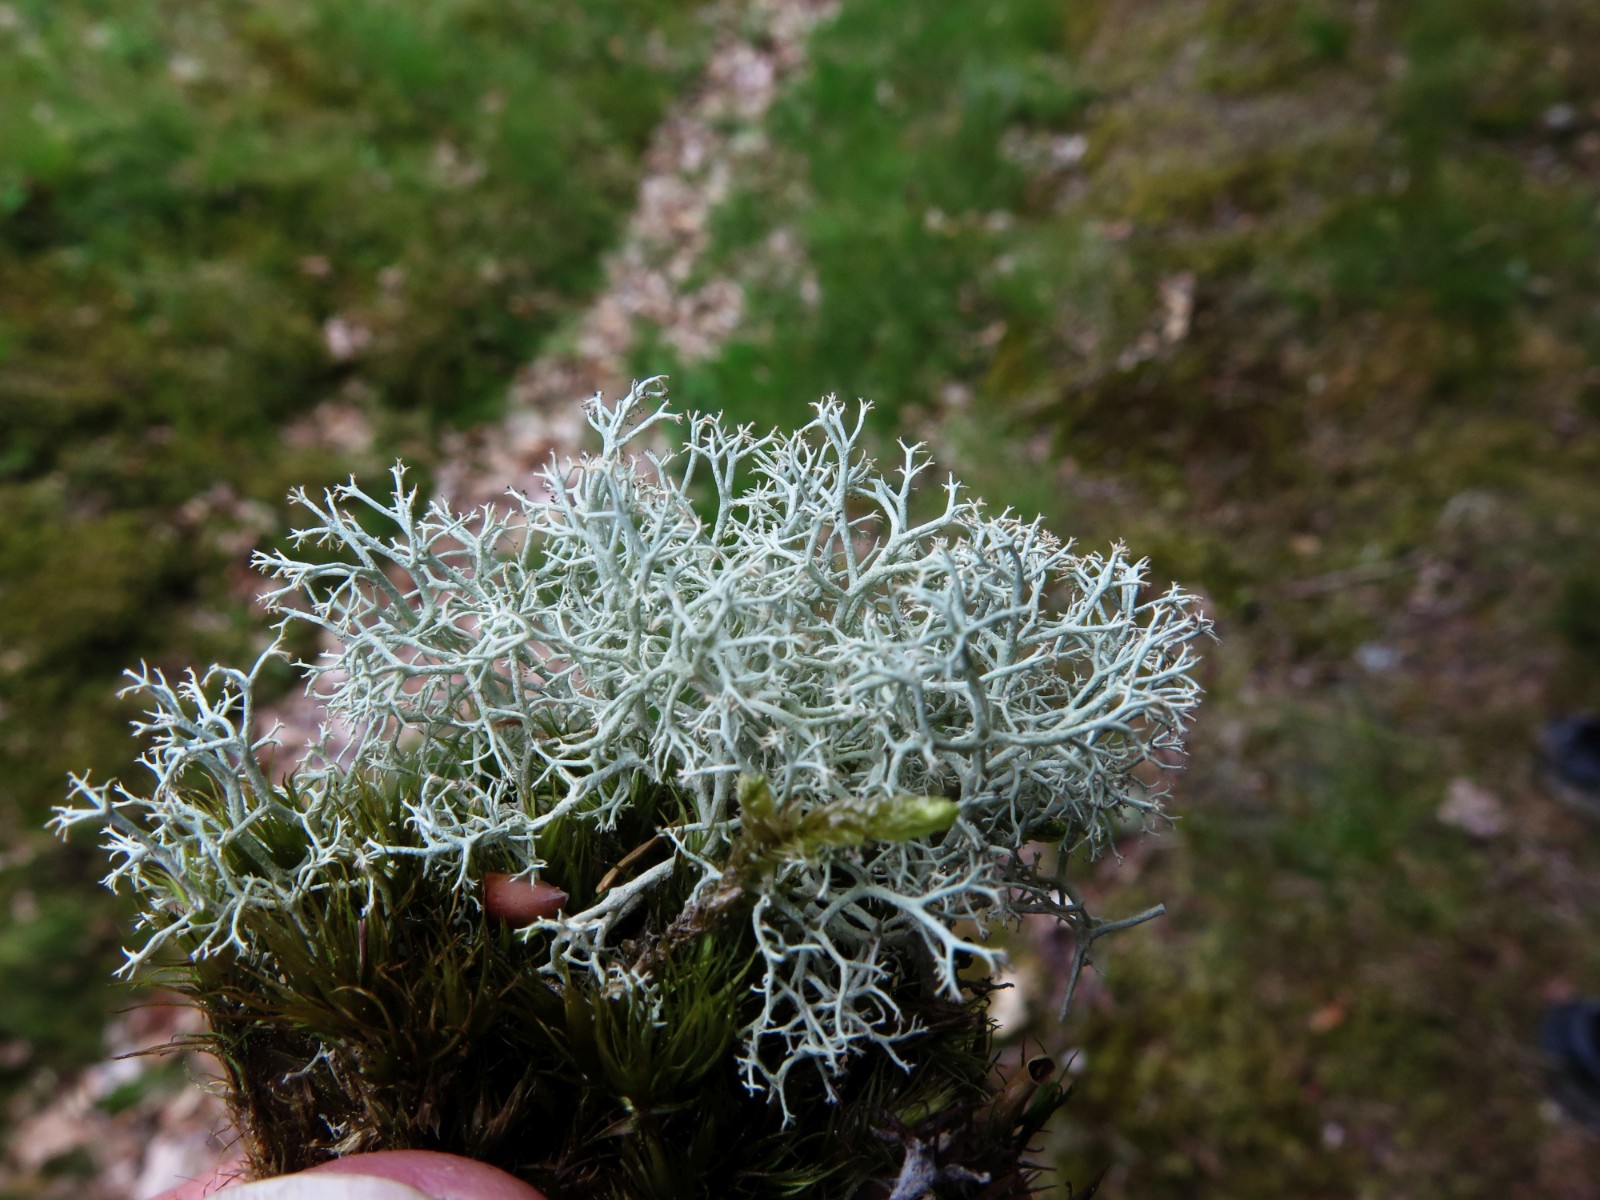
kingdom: Fungi
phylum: Ascomycota
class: Lecanoromycetes
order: Lecanorales
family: Cladoniaceae
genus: Cladonia
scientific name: Cladonia rangiformis
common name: spættet bægerlav
